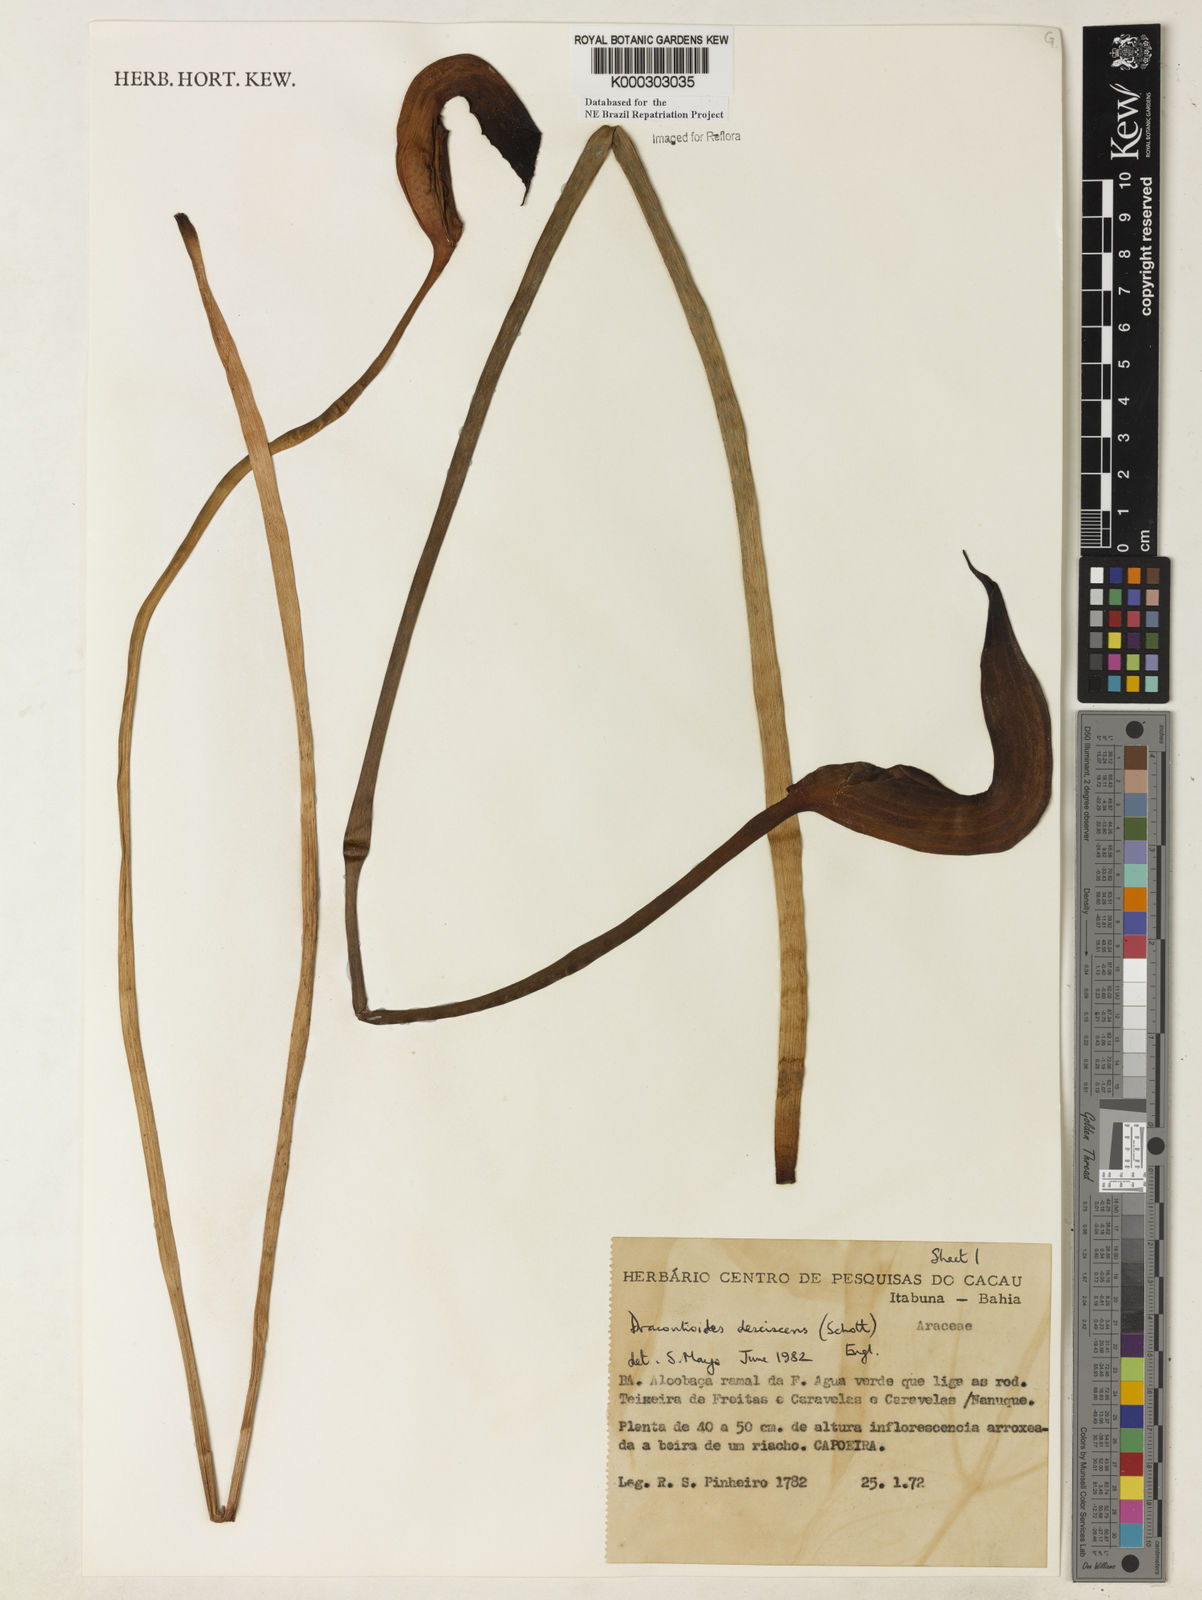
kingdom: Plantae
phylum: Tracheophyta
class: Liliopsida
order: Alismatales
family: Araceae
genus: Dracontioides
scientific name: Dracontioides desciscens
